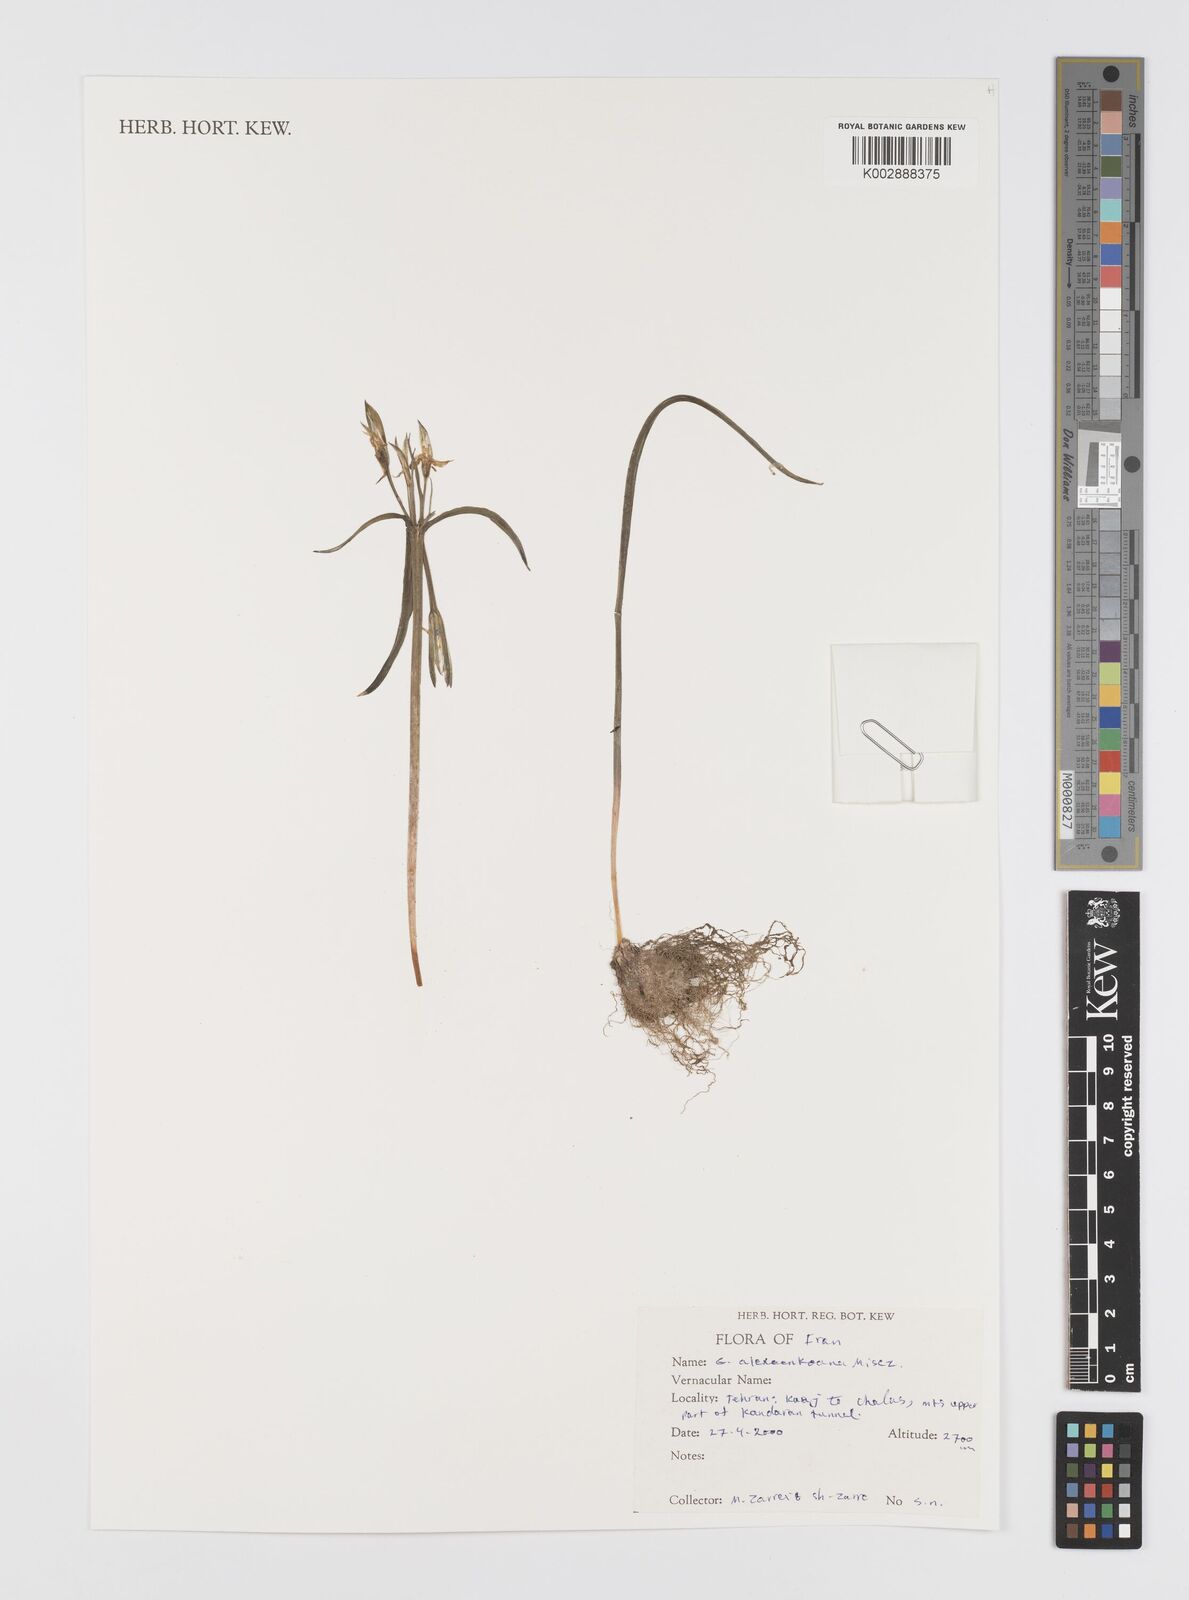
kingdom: Plantae
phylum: Tracheophyta
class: Liliopsida
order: Liliales
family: Liliaceae
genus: Gagea
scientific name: Gagea alexeenkoana
